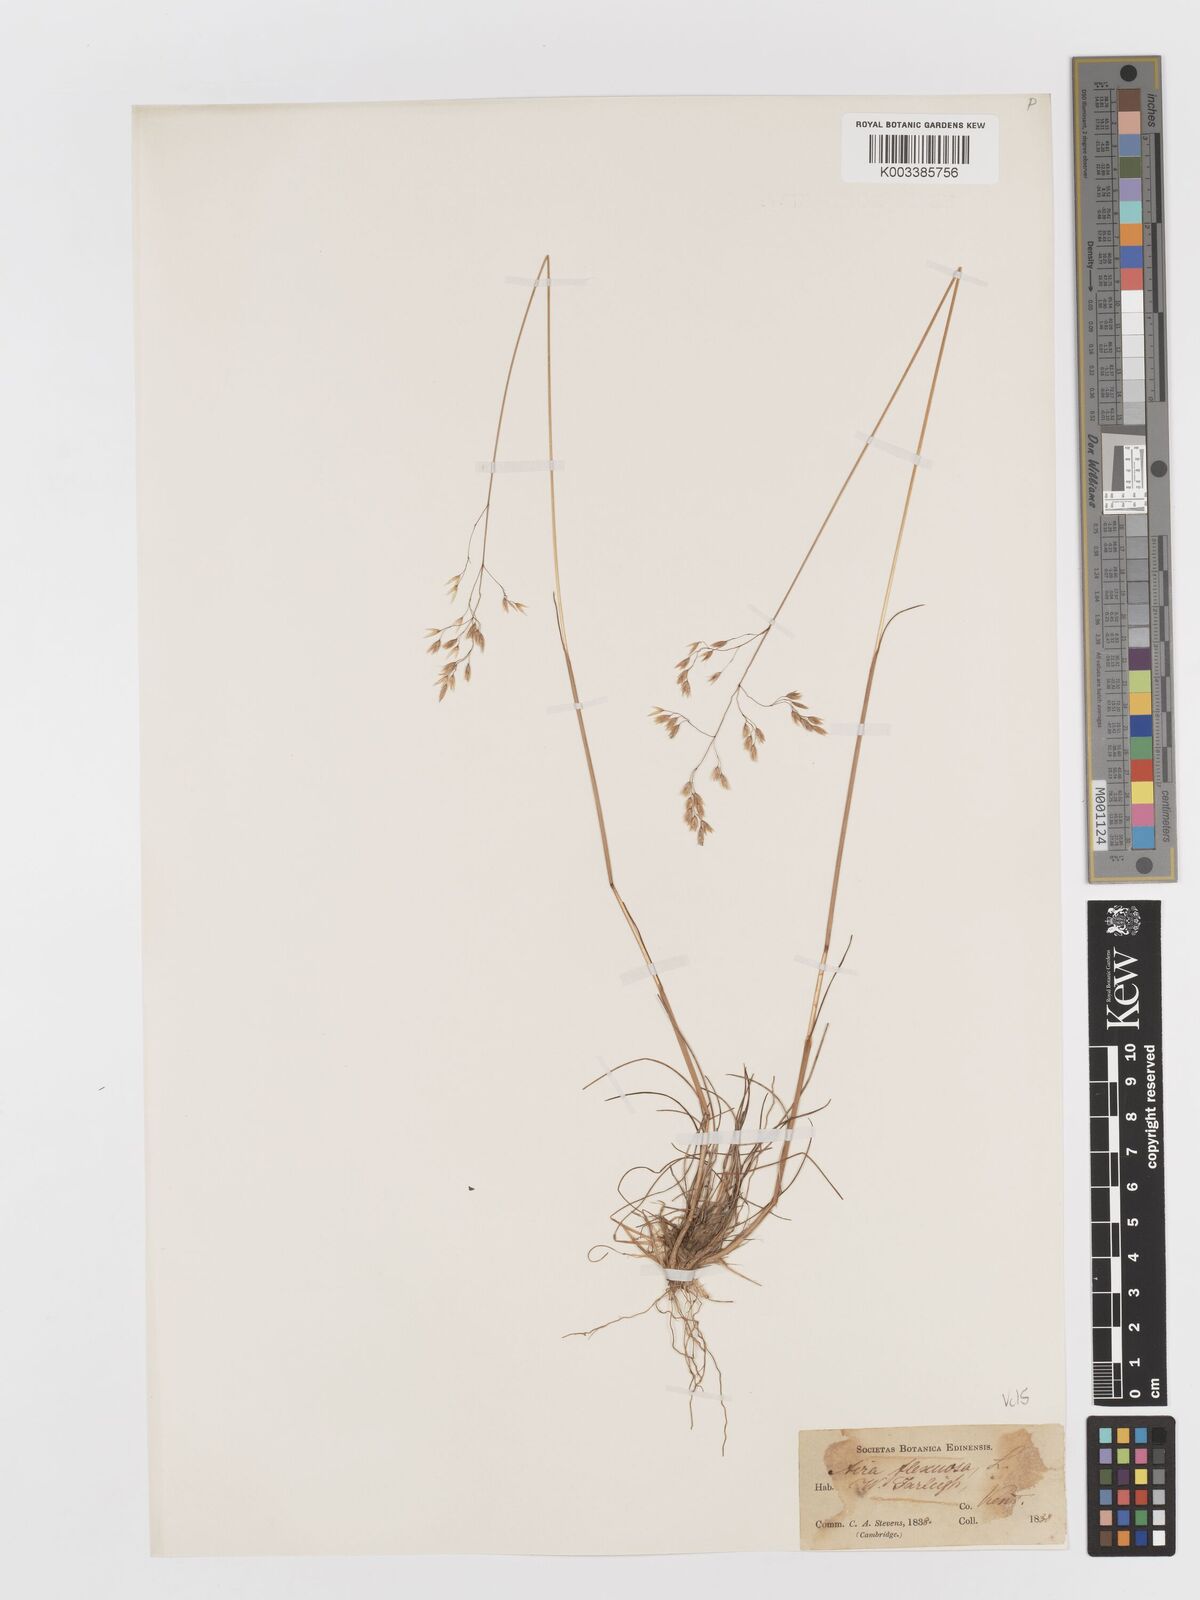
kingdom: Plantae
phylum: Tracheophyta
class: Liliopsida
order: Poales
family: Poaceae
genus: Avenella
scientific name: Avenella flexuosa
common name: Wavy hairgrass
